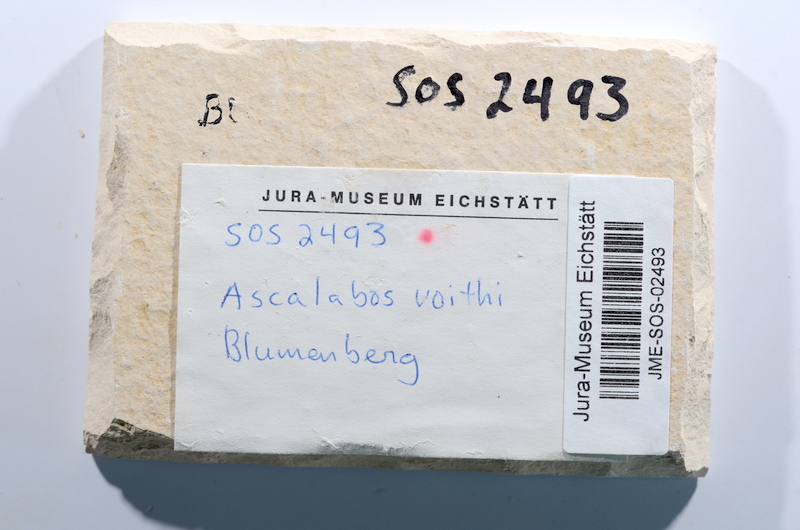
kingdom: Animalia
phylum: Chordata
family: Ascalaboidae
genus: Ascalabos
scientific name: Ascalabos voithii
